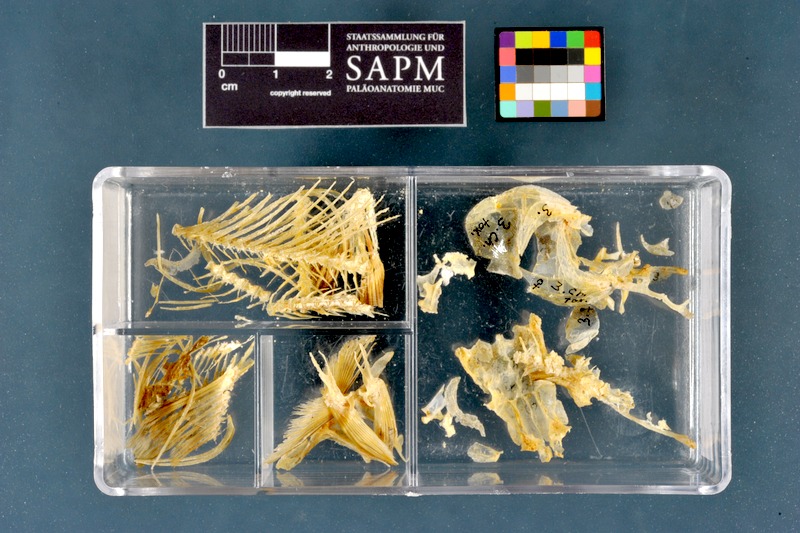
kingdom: Animalia
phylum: Chordata
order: Cypriniformes
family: Cyprinidae
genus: Parachondrostoma
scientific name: Parachondrostoma toxostoma
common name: Toxostome
